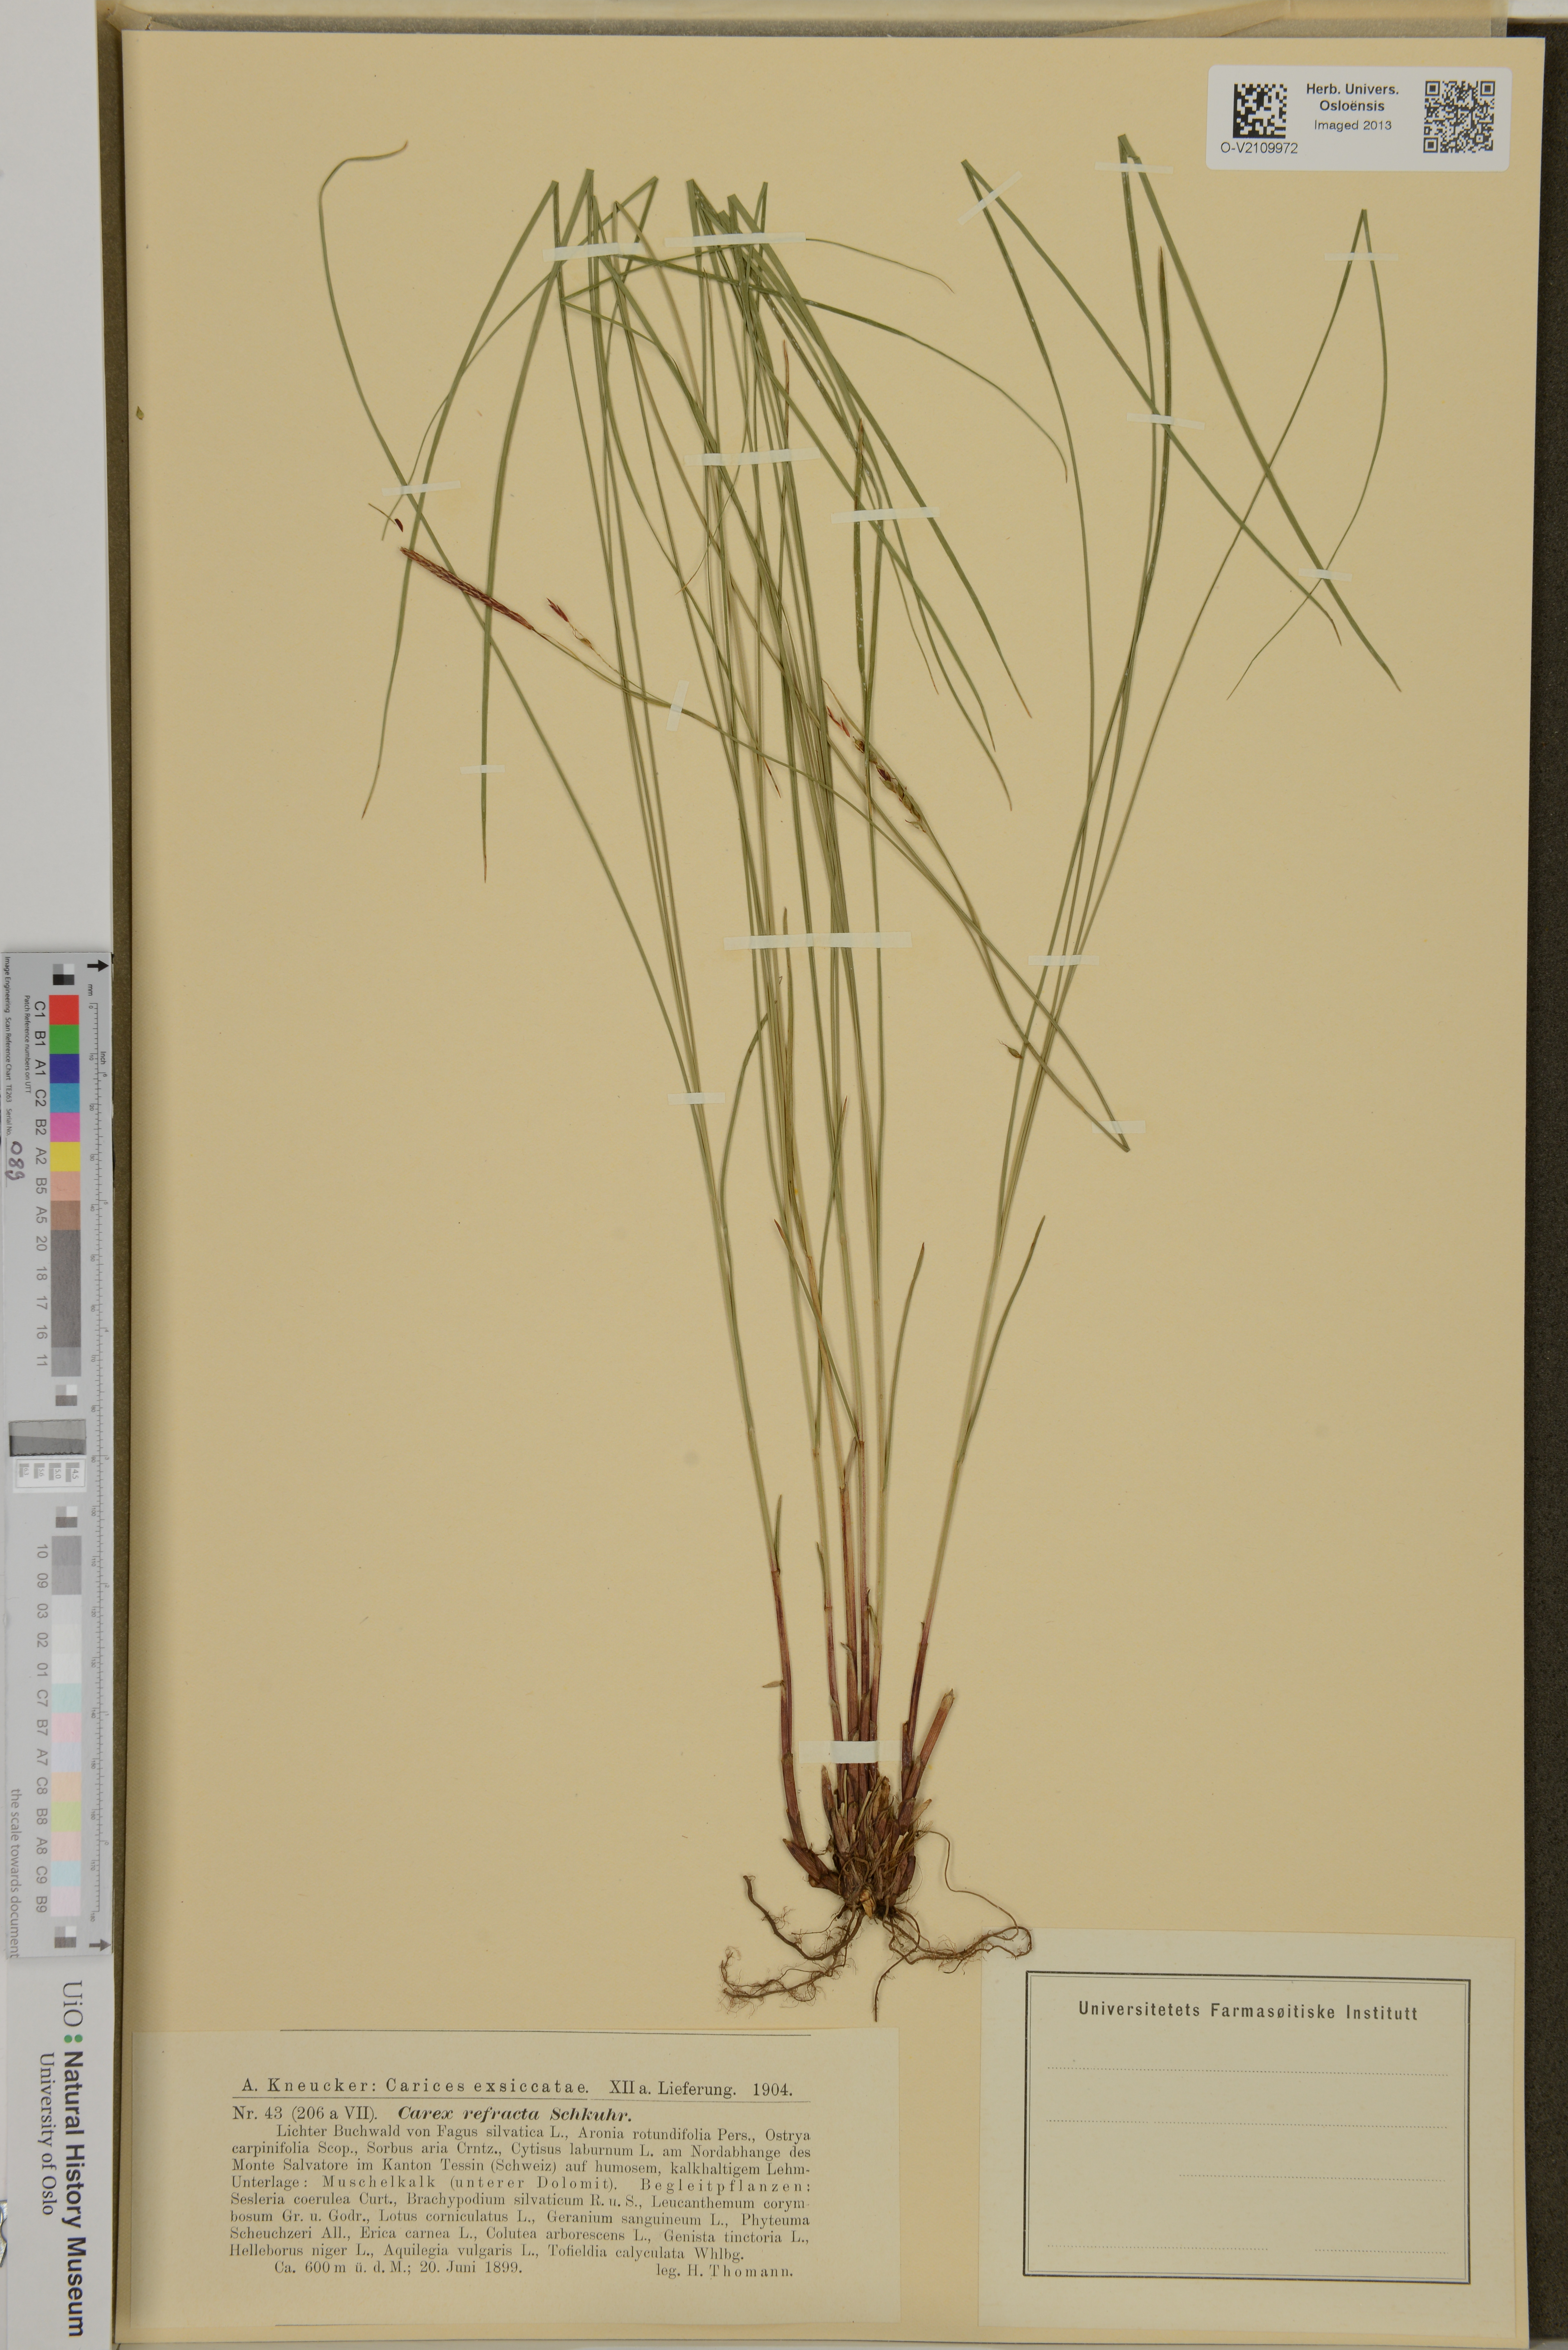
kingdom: Plantae
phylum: Tracheophyta
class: Liliopsida
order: Poales
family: Cyperaceae
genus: Carex
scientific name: Carex
